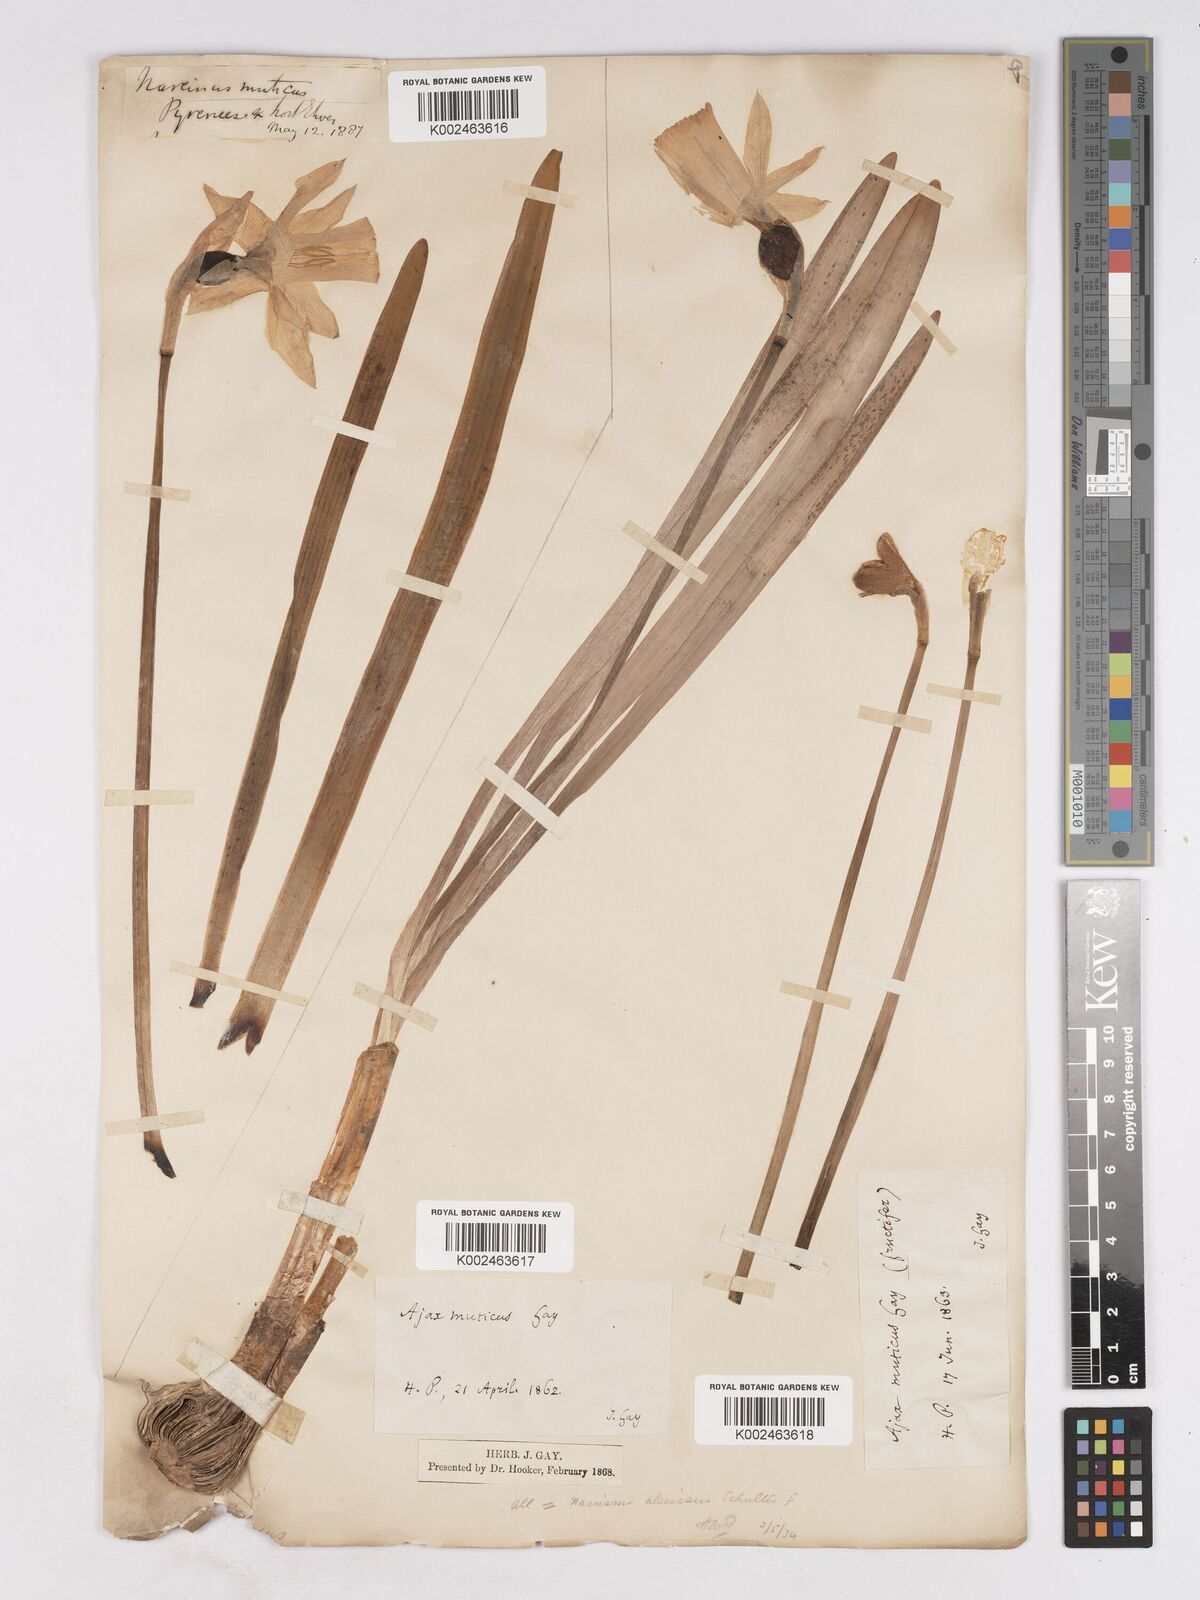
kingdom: Plantae
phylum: Tracheophyta
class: Liliopsida
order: Asparagales
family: Amaryllidaceae
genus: Narcissus
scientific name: Narcissus abscissus
